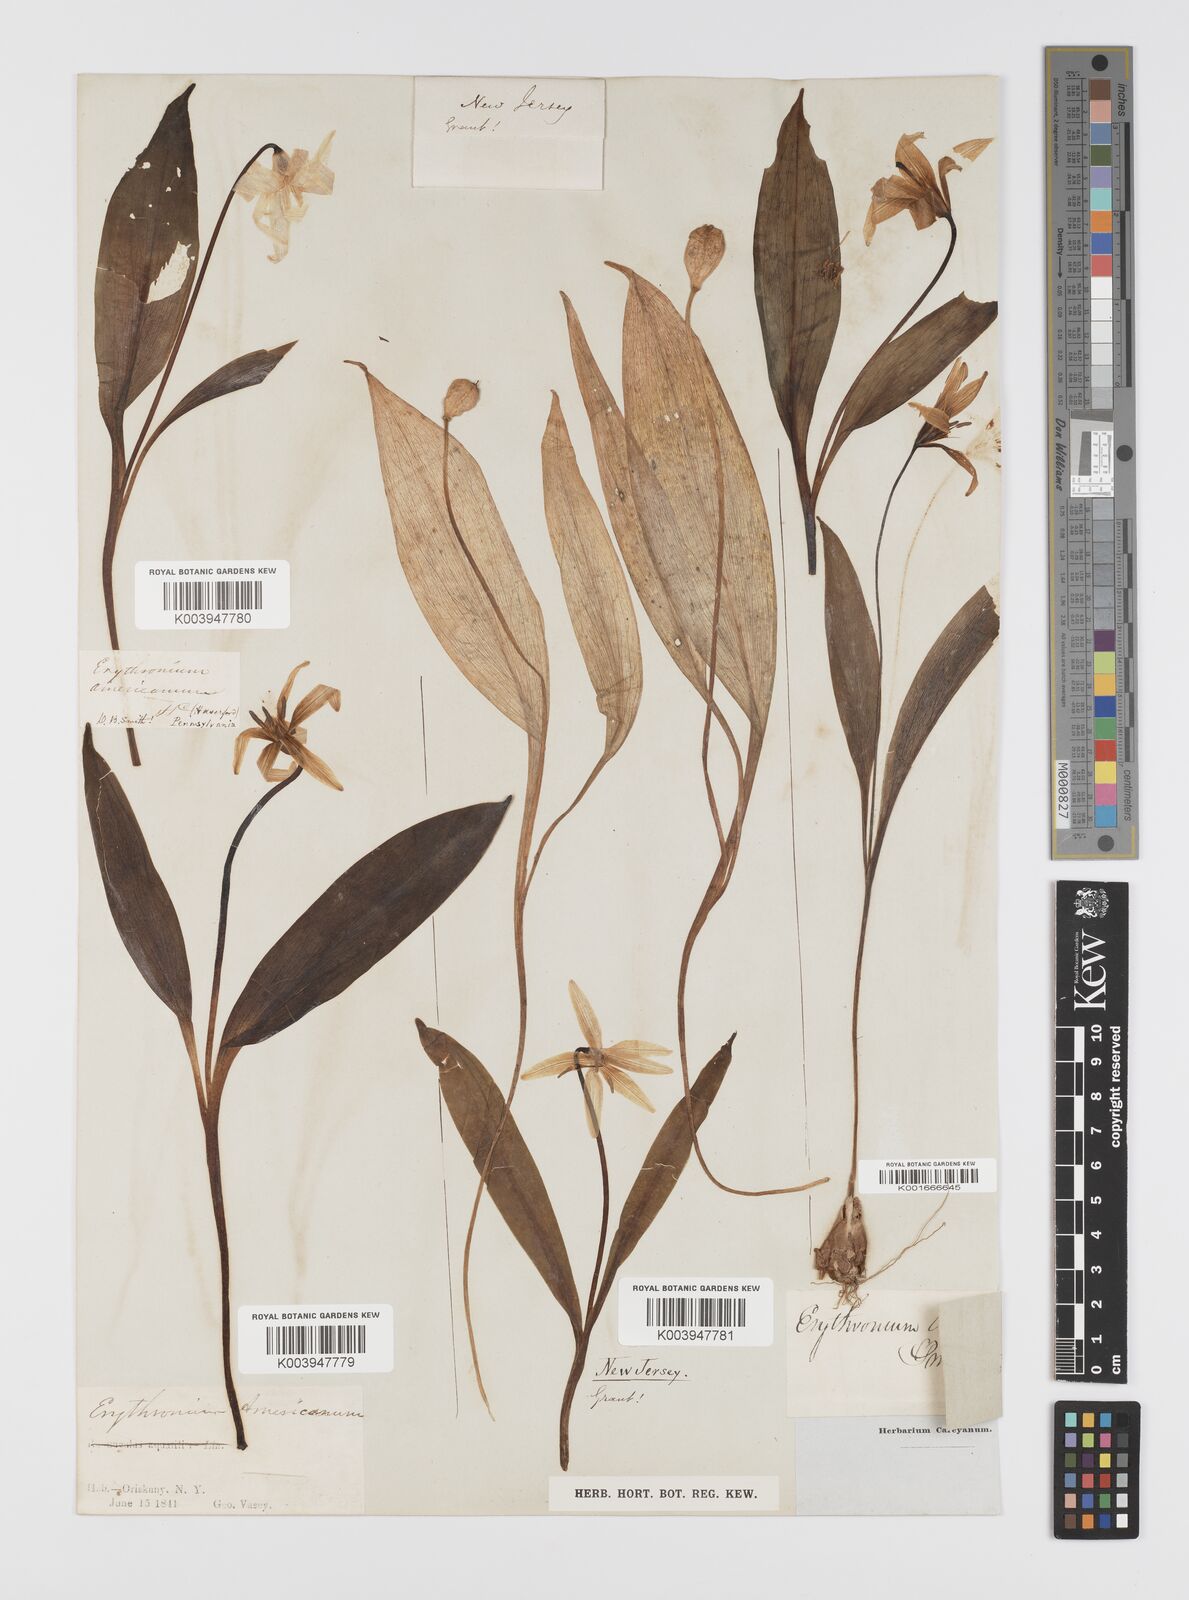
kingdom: Plantae
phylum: Tracheophyta
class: Liliopsida
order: Liliales
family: Liliaceae
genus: Erythronium
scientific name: Erythronium americanum
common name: Yellow adder's-tongue
